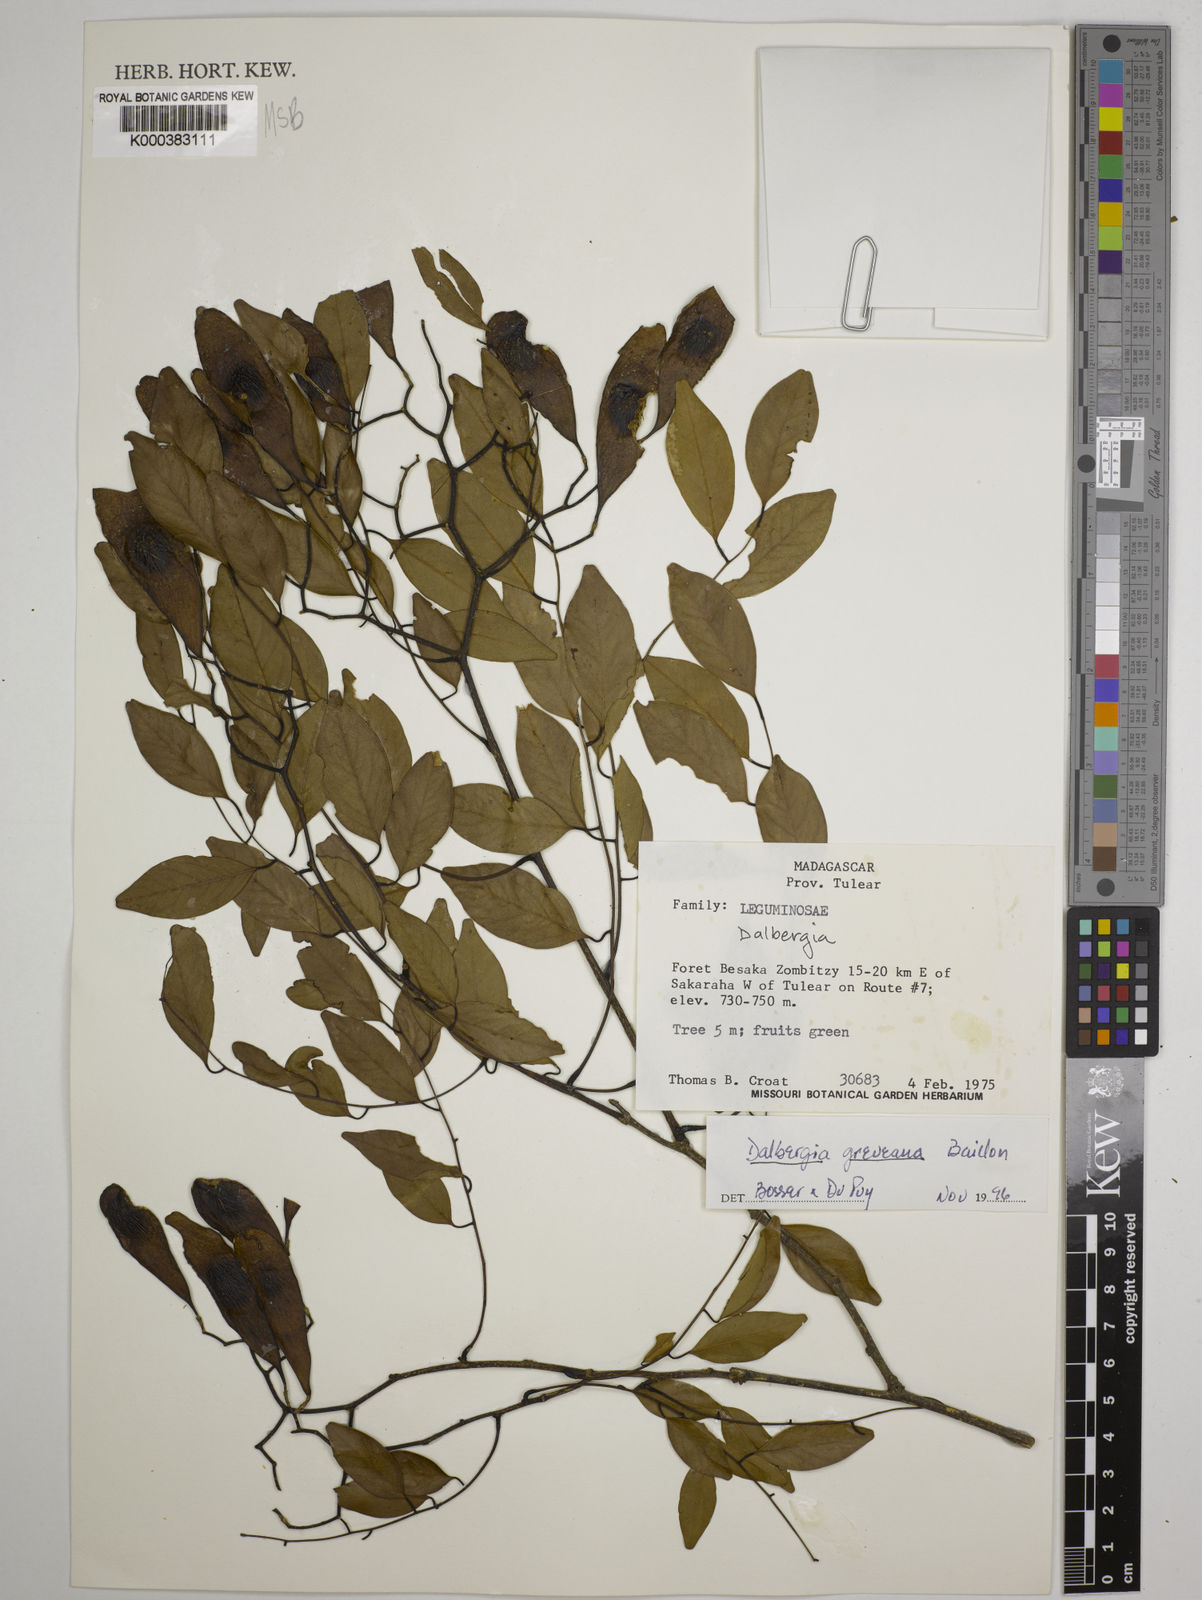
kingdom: Plantae
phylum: Tracheophyta
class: Magnoliopsida
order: Fabales
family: Fabaceae
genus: Dalbergia
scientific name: Dalbergia greveana
